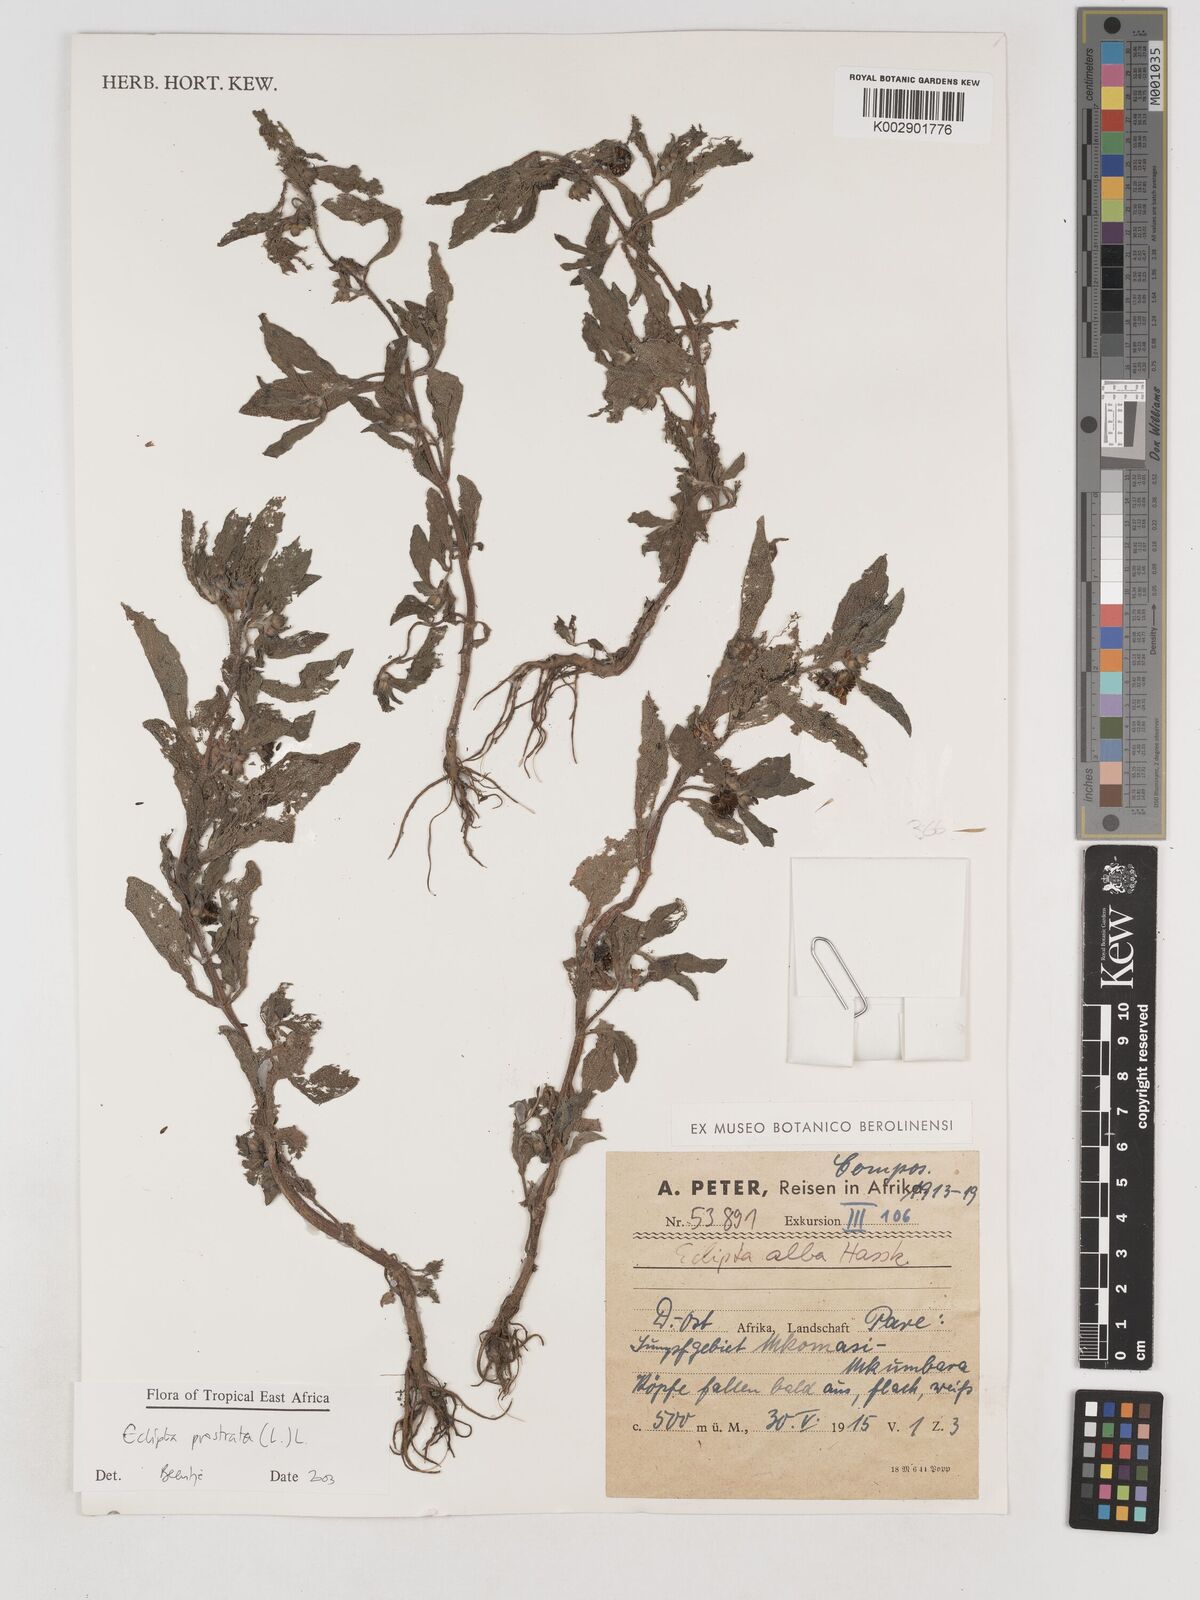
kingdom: Plantae
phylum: Tracheophyta
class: Magnoliopsida
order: Asterales
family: Asteraceae
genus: Eclipta
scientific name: Eclipta alba
